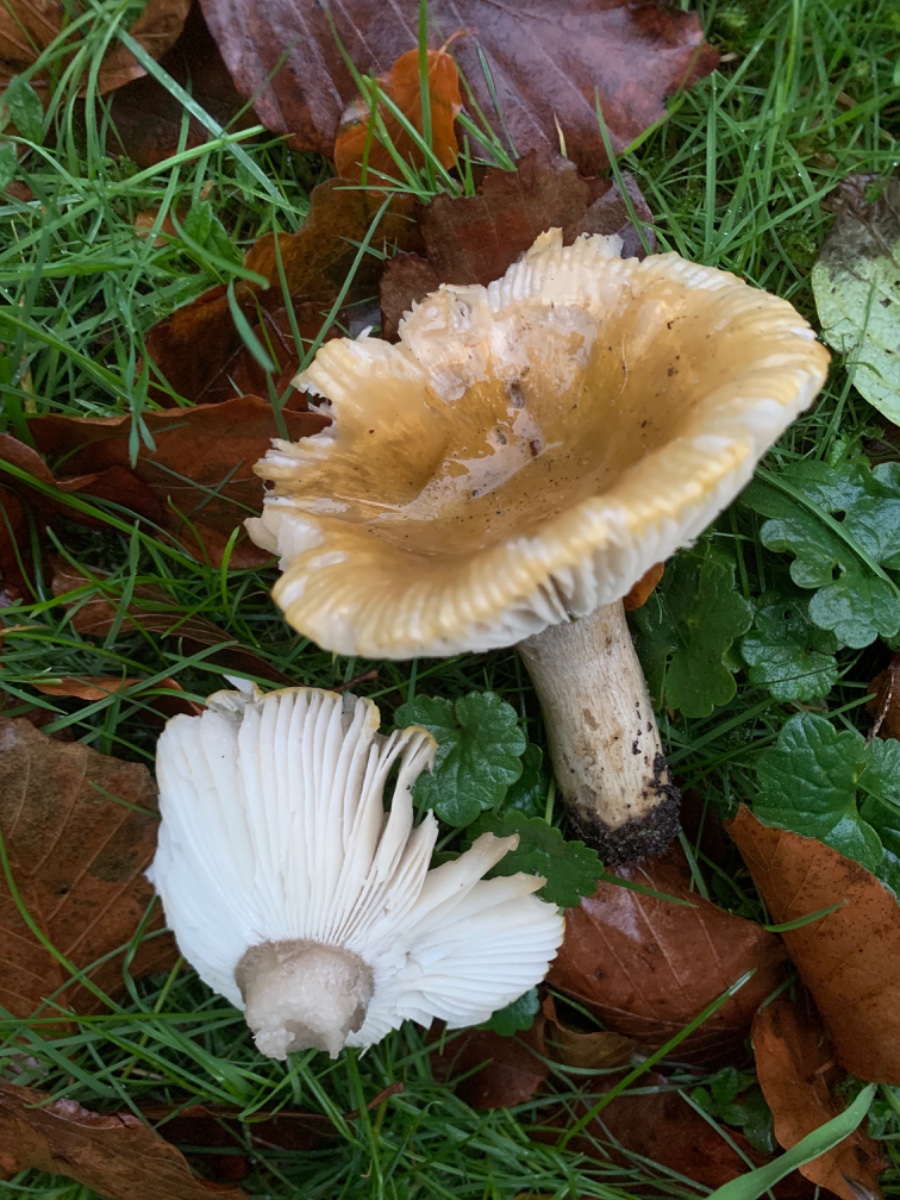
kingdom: Fungi
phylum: Basidiomycota
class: Agaricomycetes
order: Russulales
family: Russulaceae
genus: Russula
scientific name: Russula ochroleuca
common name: okkergul skørhat
